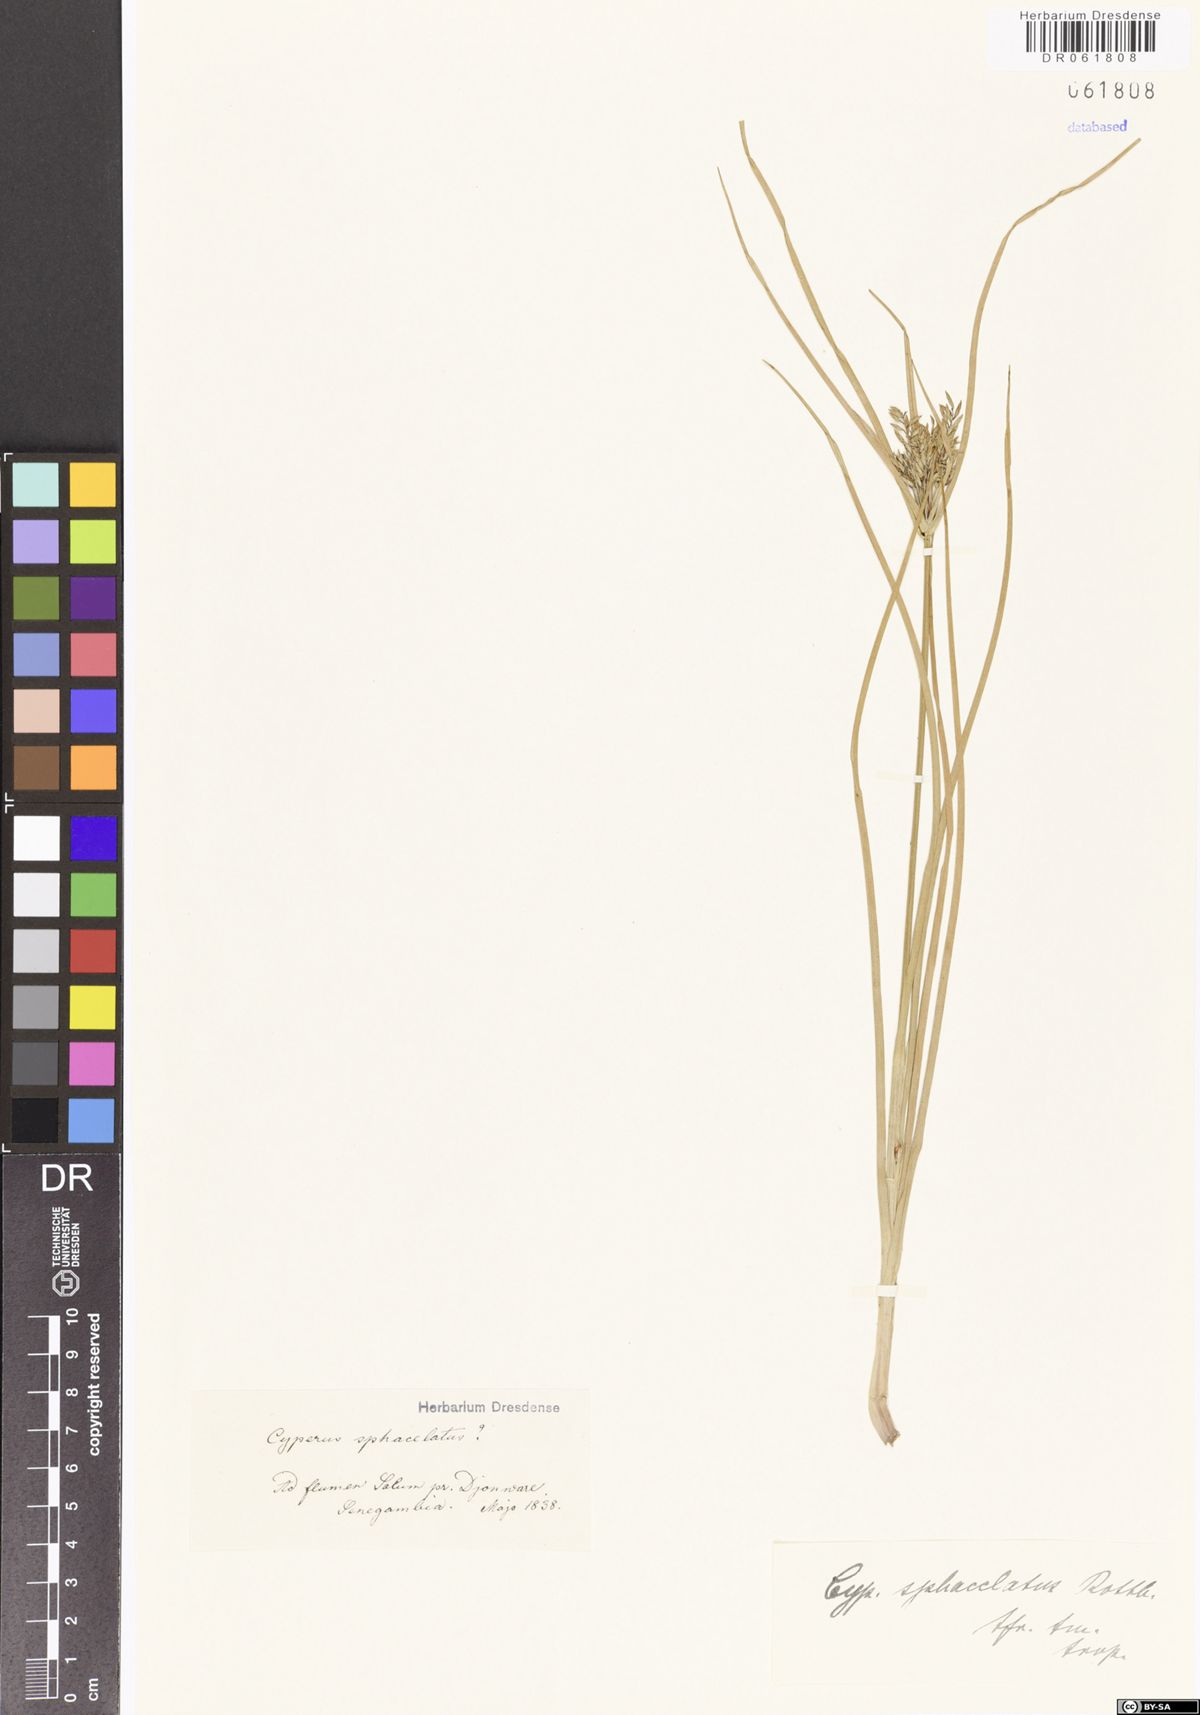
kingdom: Plantae
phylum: Tracheophyta
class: Liliopsida
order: Poales
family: Cyperaceae
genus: Cyperus
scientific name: Cyperus sphacelatus
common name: Roadside flatsedge
